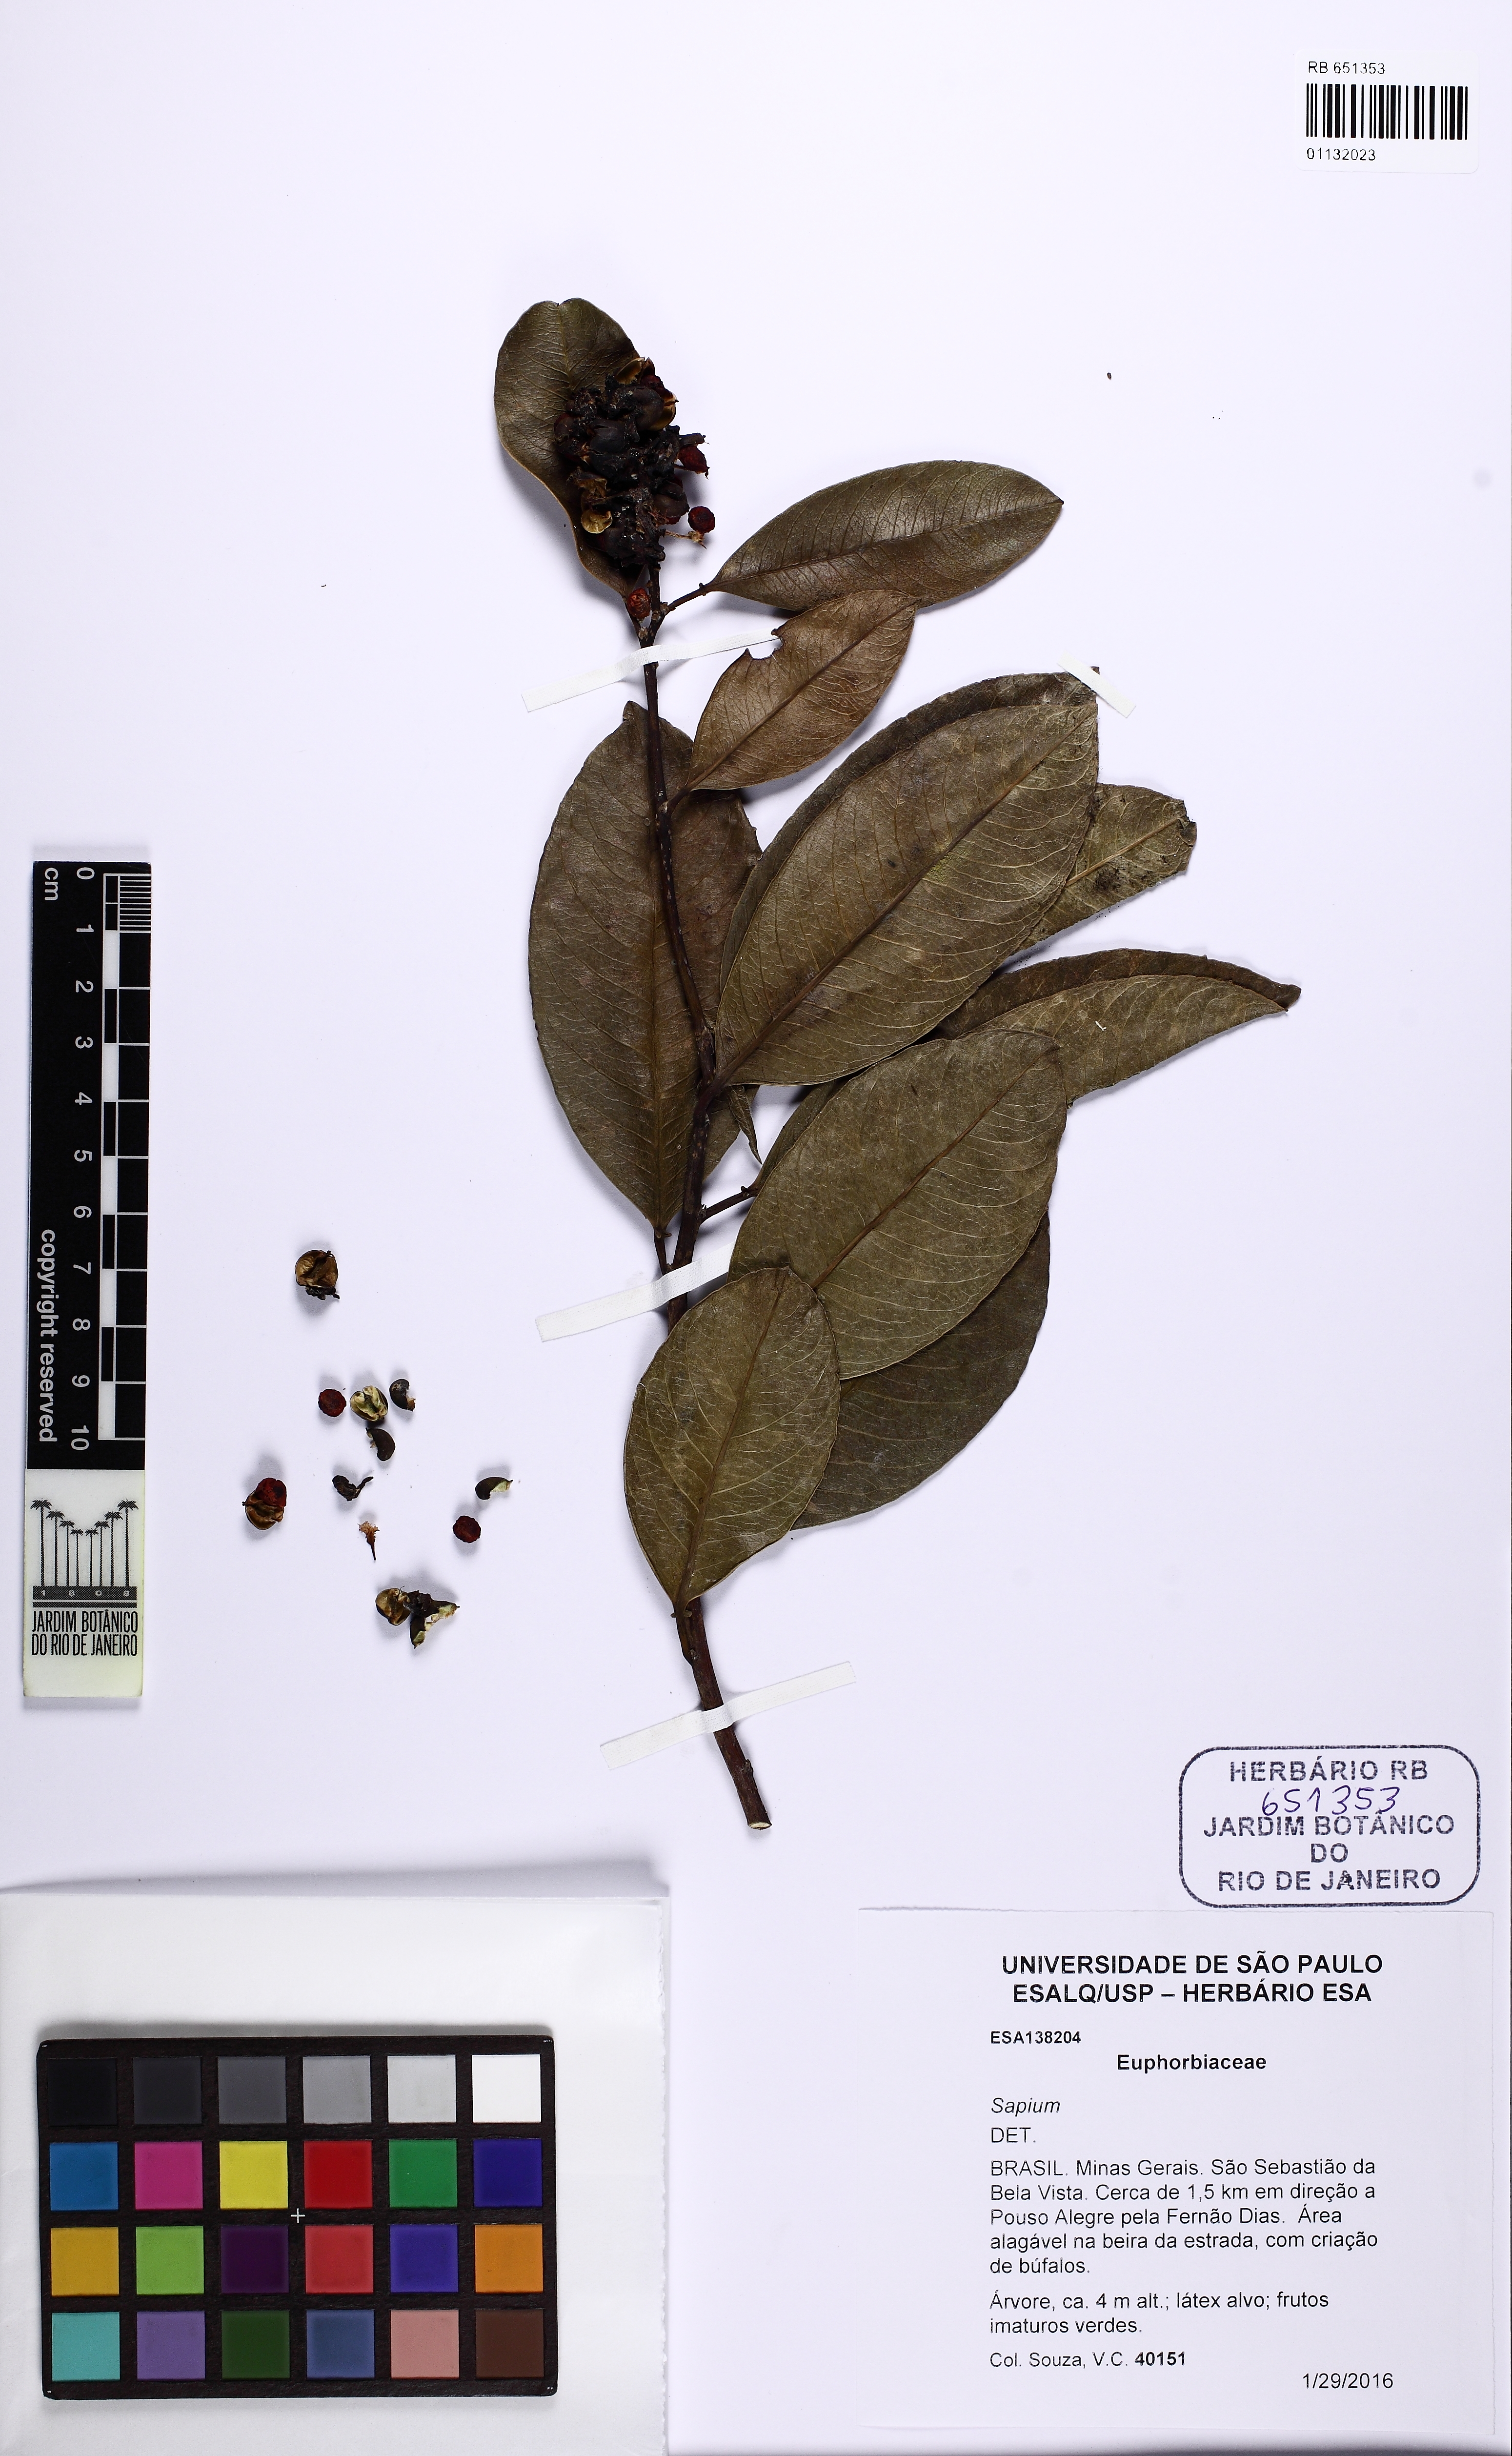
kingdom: Plantae
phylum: Tracheophyta
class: Magnoliopsida
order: Malpighiales
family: Euphorbiaceae
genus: Sapium
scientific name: Sapium
